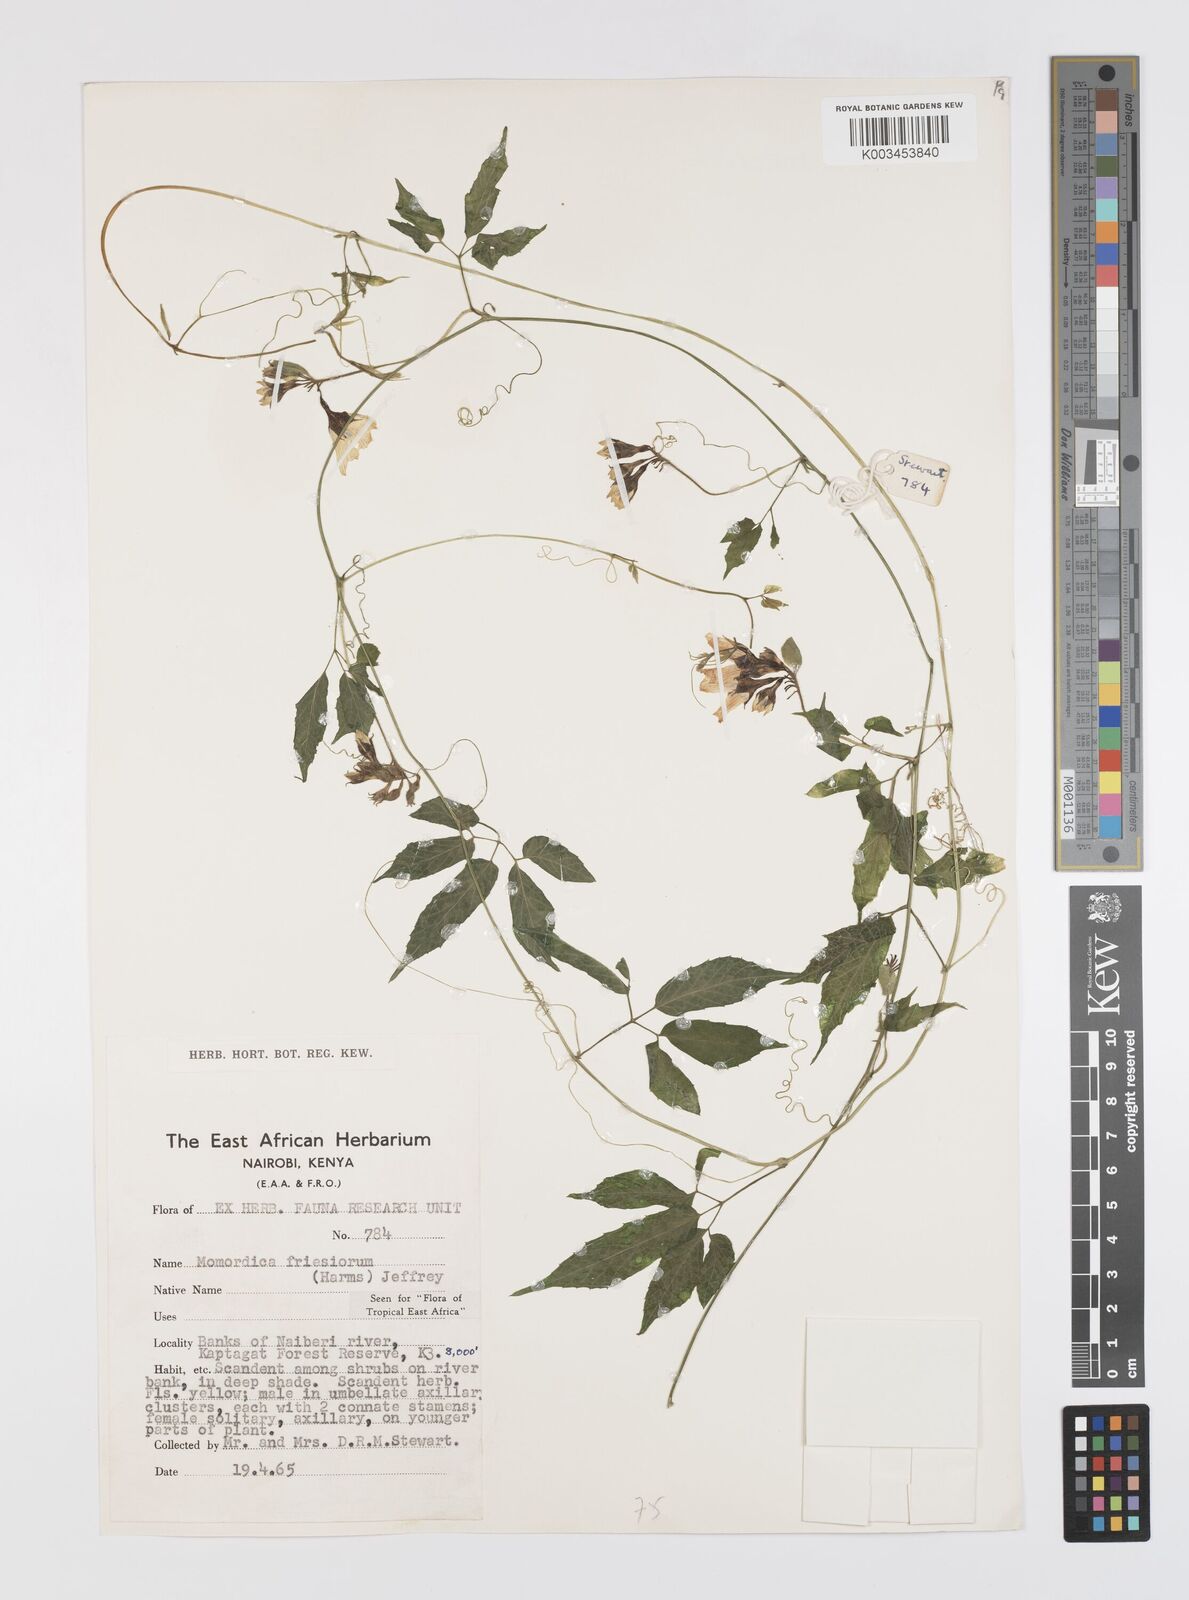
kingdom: Plantae
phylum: Tracheophyta
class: Magnoliopsida
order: Cucurbitales
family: Cucurbitaceae
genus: Momordica
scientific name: Momordica friesiorum
